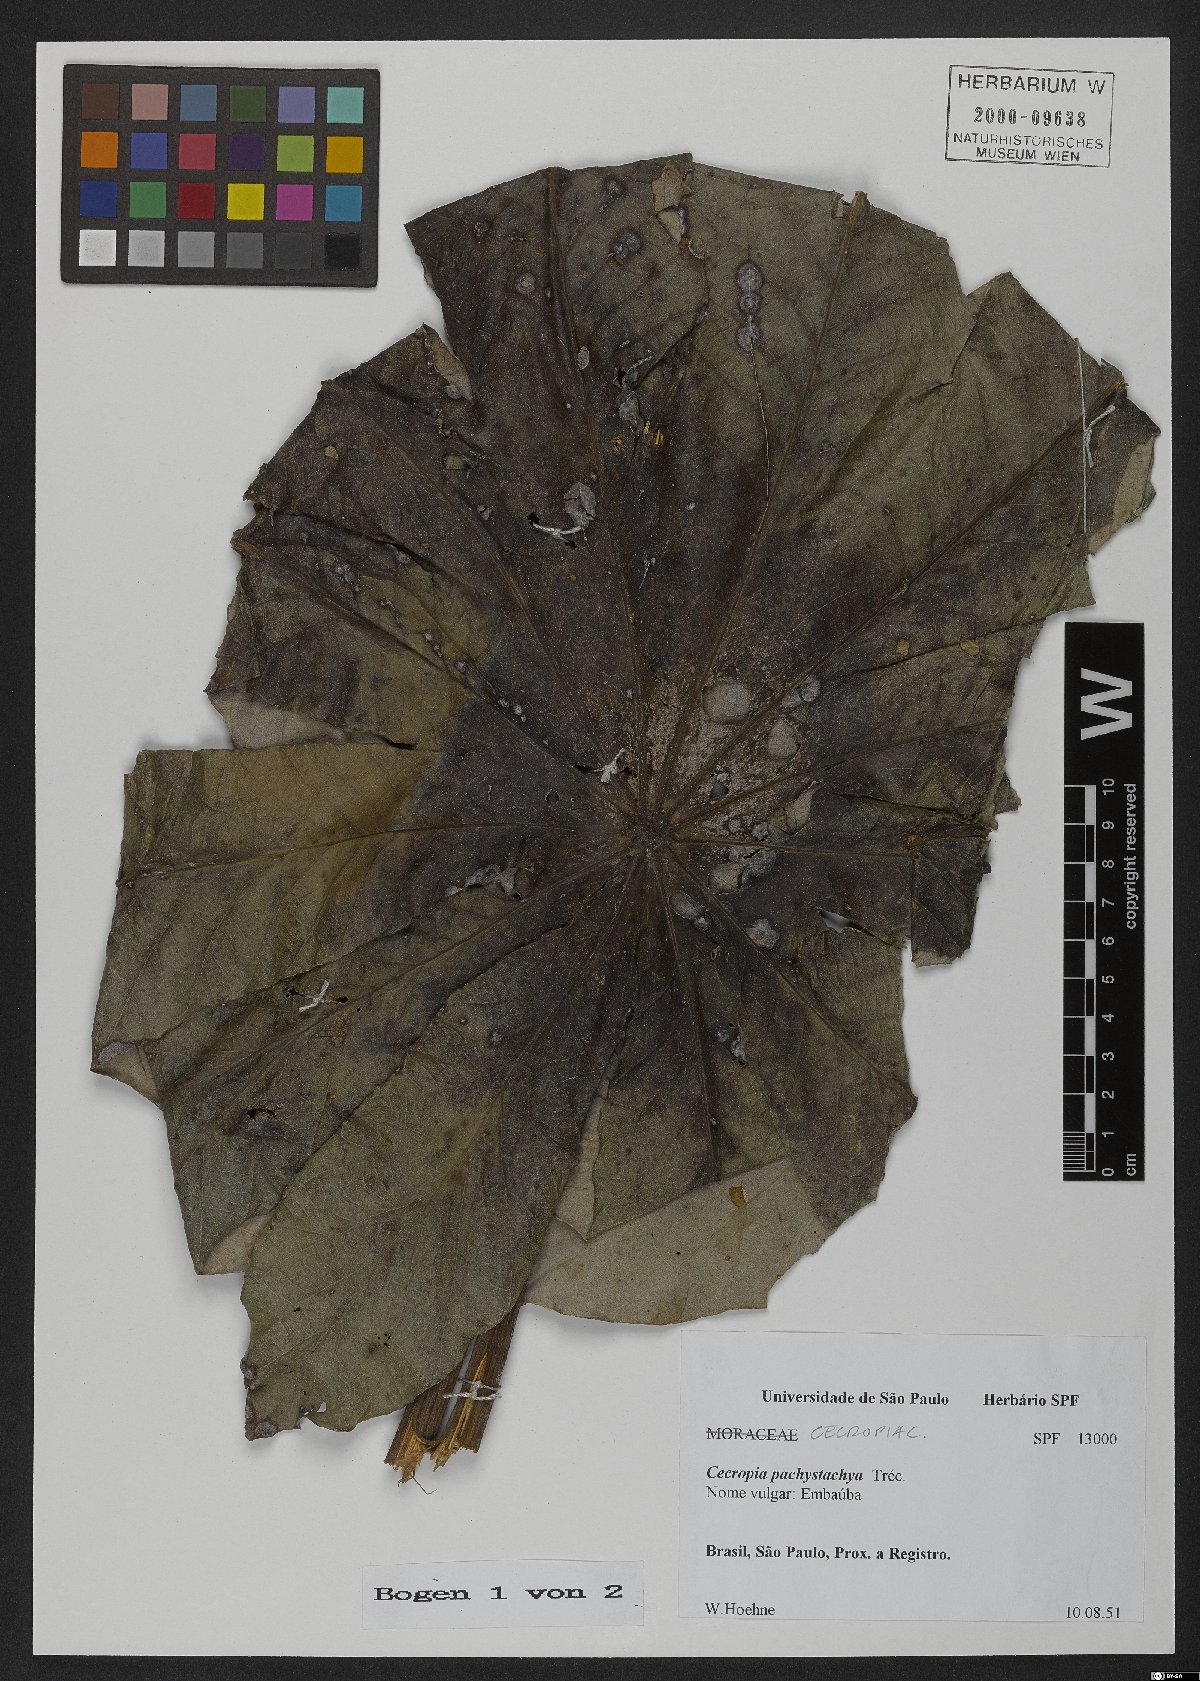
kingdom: Plantae
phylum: Tracheophyta
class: Magnoliopsida
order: Rosales
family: Urticaceae
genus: Cecropia
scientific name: Cecropia pachystachya
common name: Ambay pumpwood
